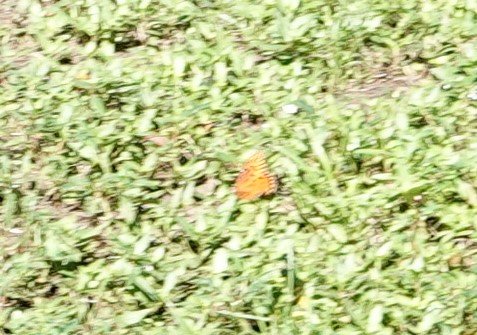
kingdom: Animalia
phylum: Arthropoda
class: Insecta
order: Lepidoptera
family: Nymphalidae
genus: Dione
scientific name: Dione vanillae
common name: Gulf Fritillary
